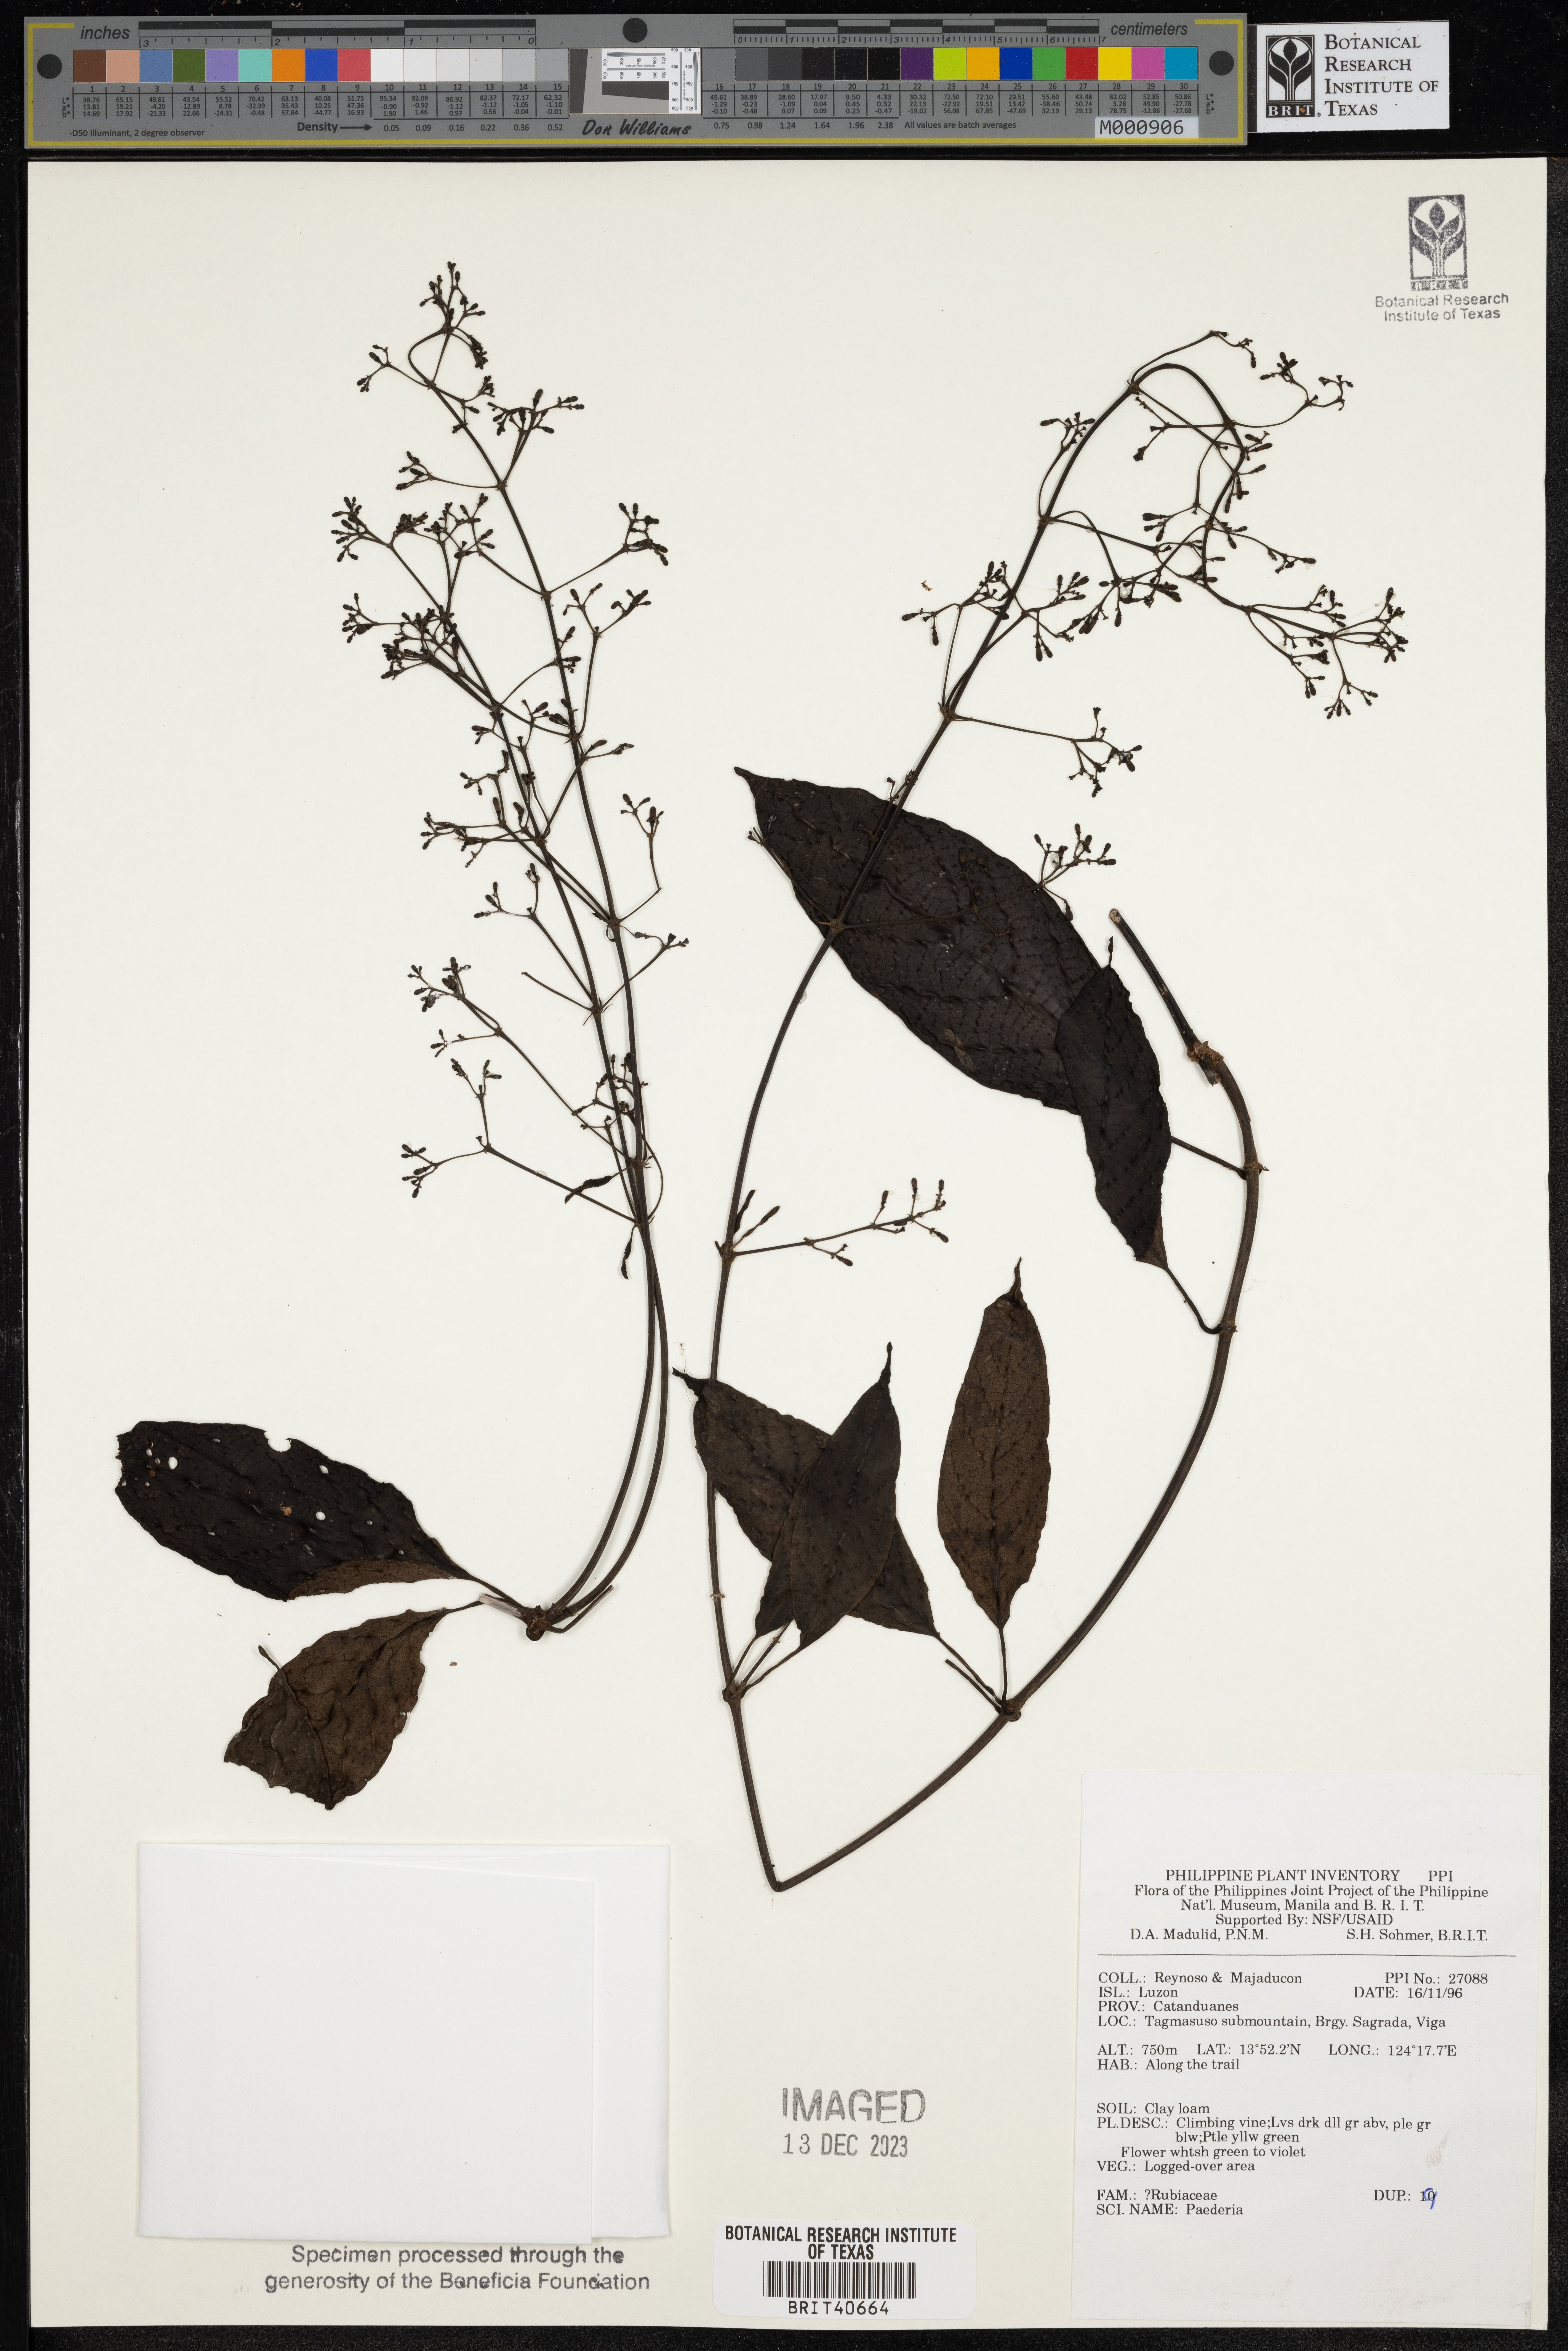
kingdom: Plantae
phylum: Tracheophyta
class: Magnoliopsida
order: Gentianales
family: Rubiaceae
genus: Paederia
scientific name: Paederia
